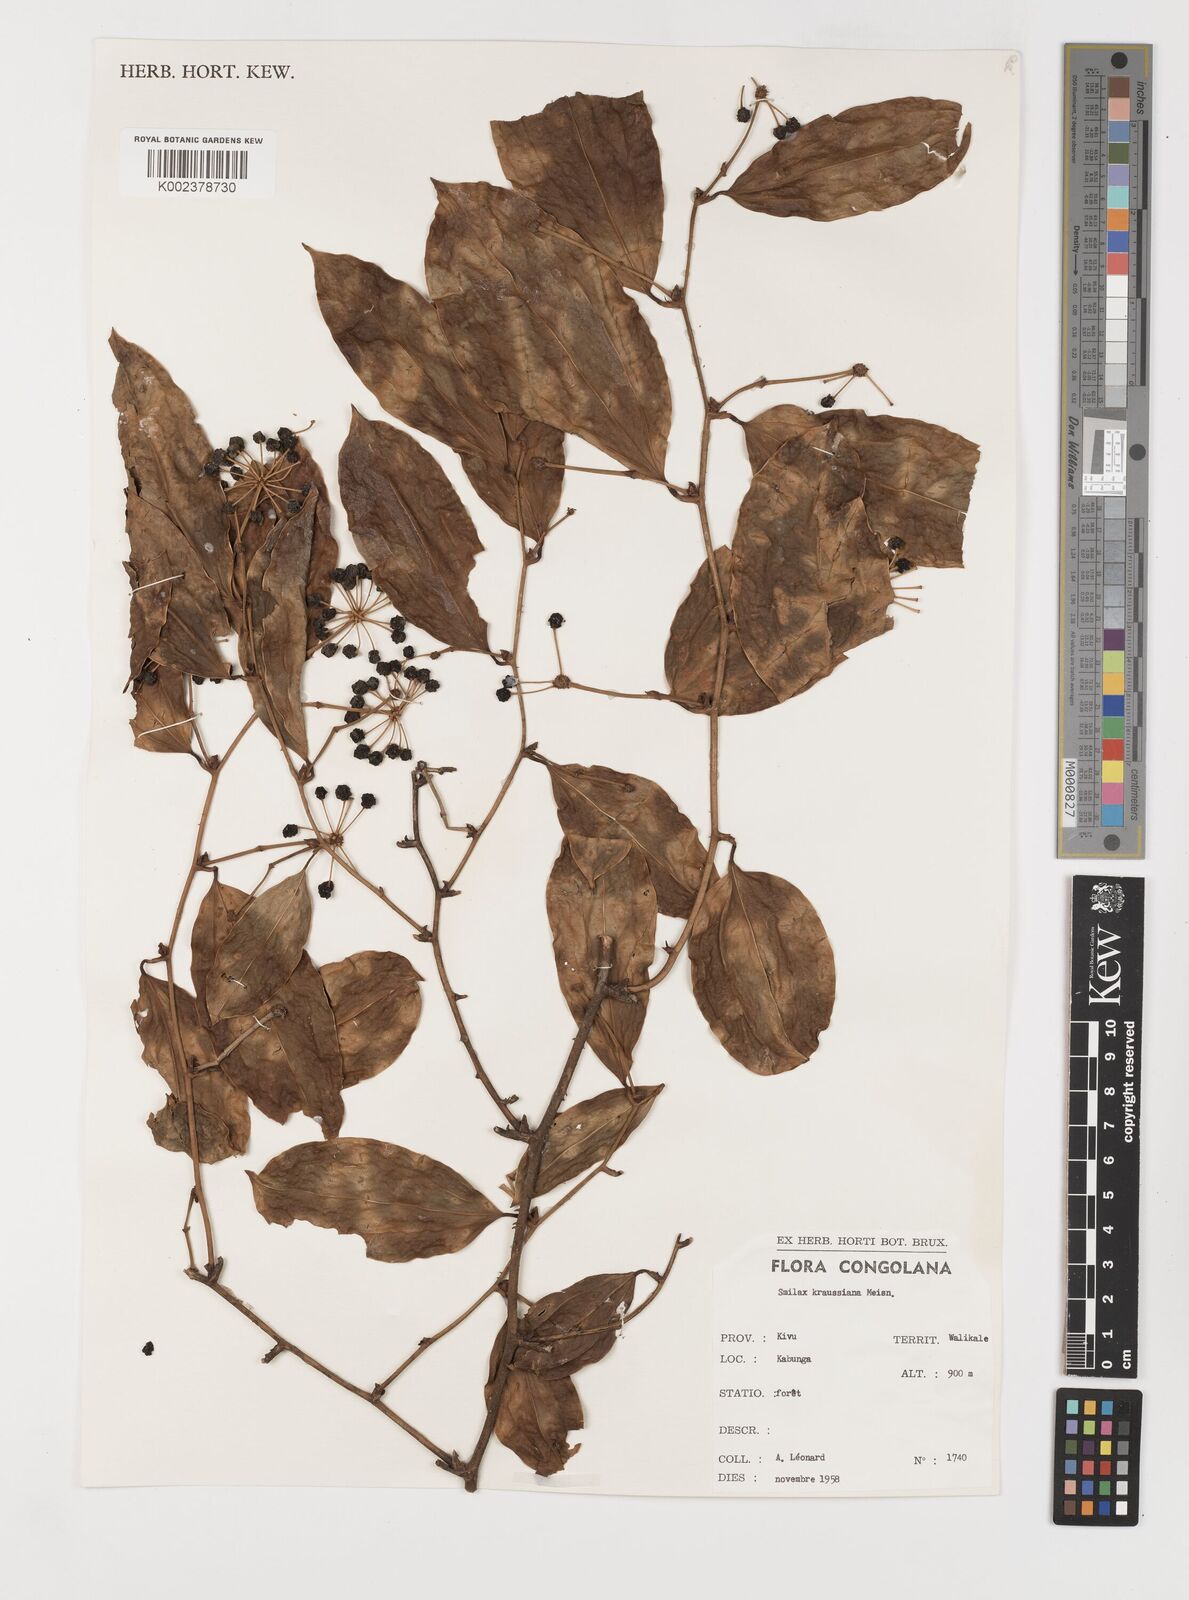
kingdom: Plantae
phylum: Tracheophyta
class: Liliopsida
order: Liliales
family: Smilacaceae
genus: Smilax
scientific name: Smilax anceps
